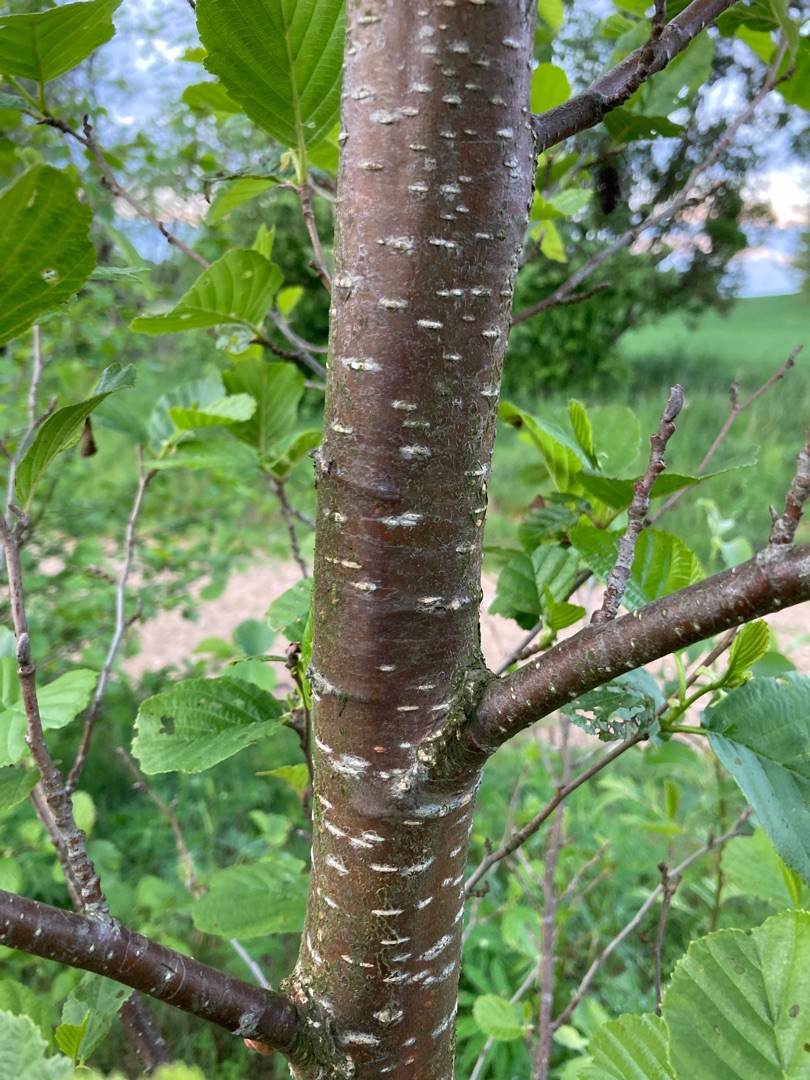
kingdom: Plantae
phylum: Tracheophyta
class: Magnoliopsida
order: Fagales
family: Betulaceae
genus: Alnus
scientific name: Alnus glutinosa
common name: Rød-el
